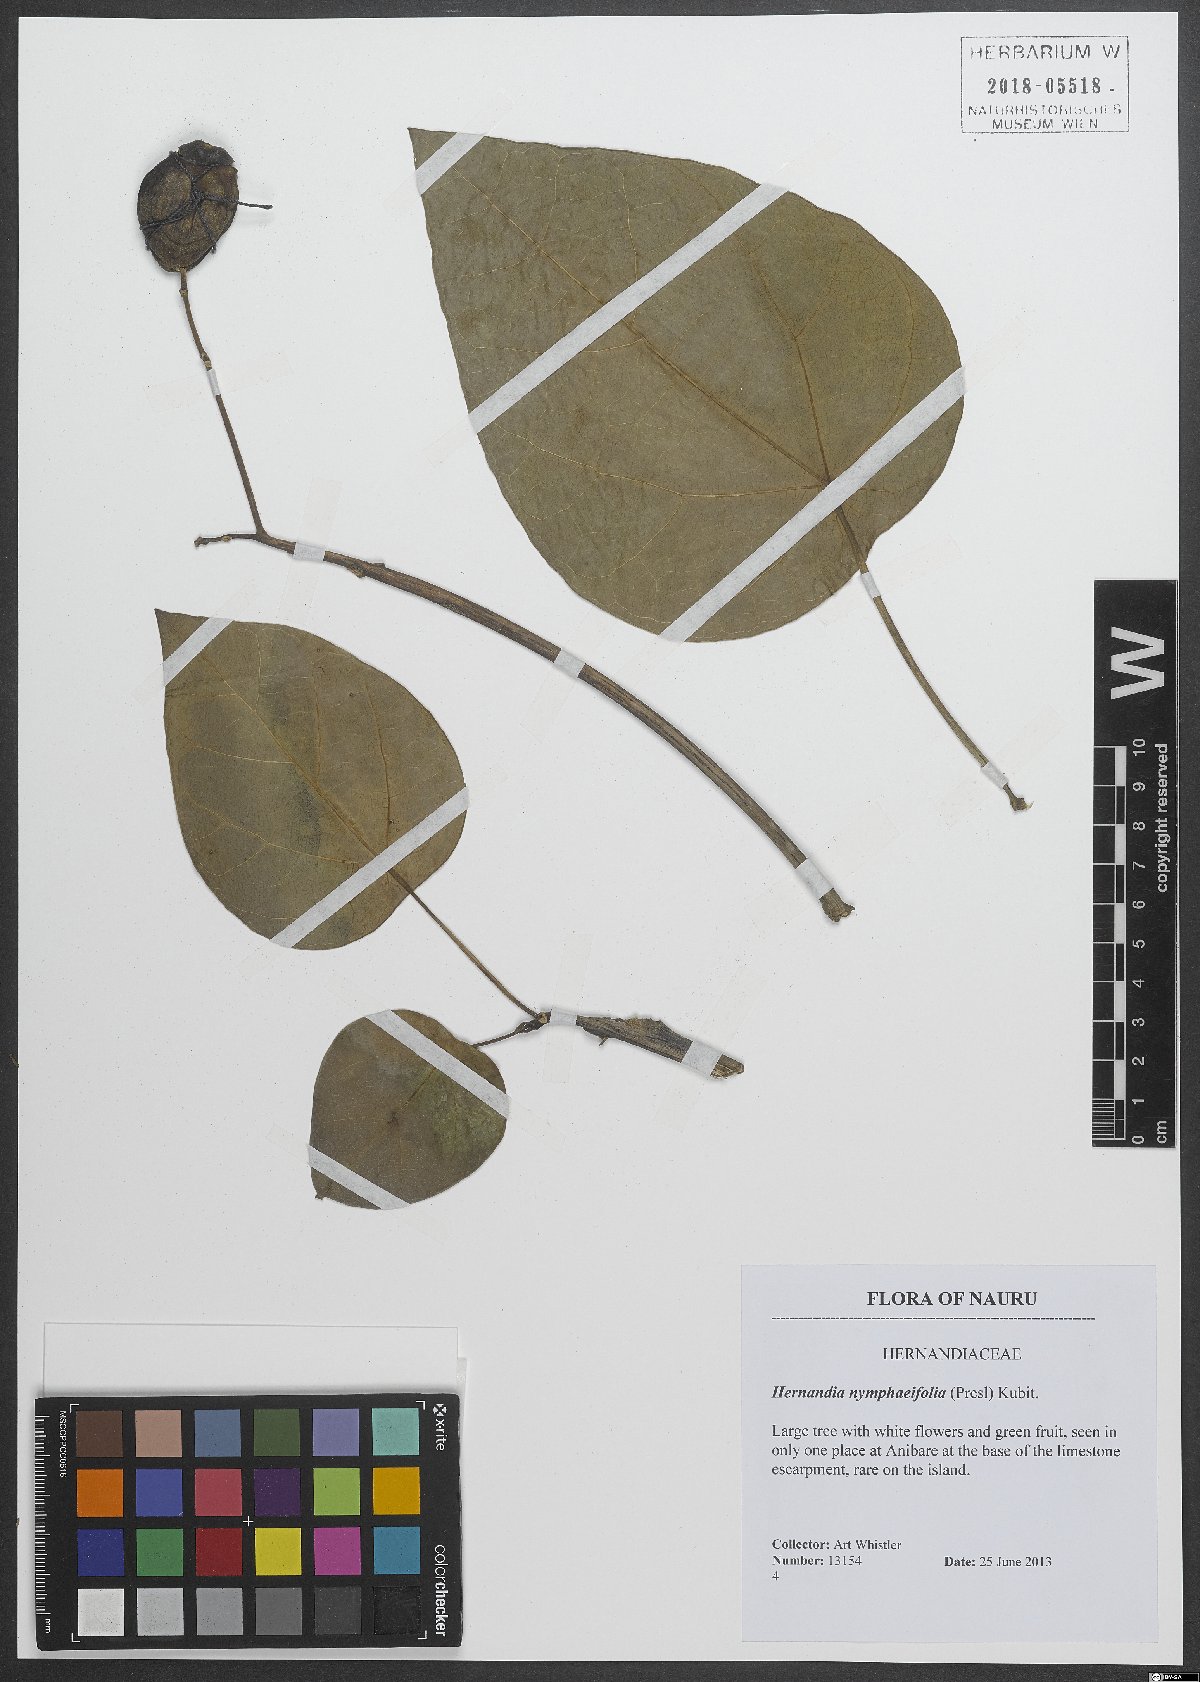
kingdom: Plantae
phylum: Tracheophyta
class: Magnoliopsida
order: Laurales
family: Hernandiaceae
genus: Hernandia
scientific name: Hernandia nymphaeifolia
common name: Sea hearse
